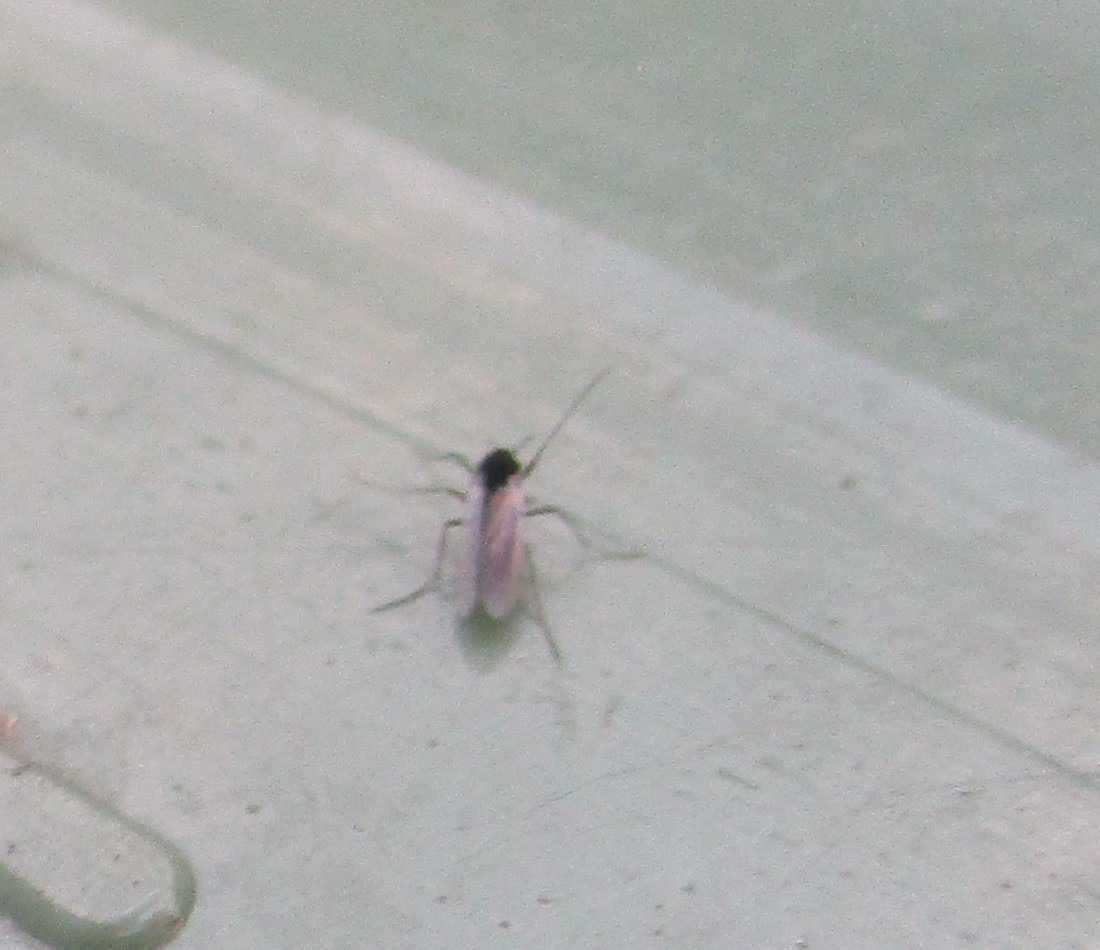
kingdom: Animalia
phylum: Arthropoda
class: Insecta
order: Diptera
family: Chironomidae
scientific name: Chironomidae
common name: Dansemyg
